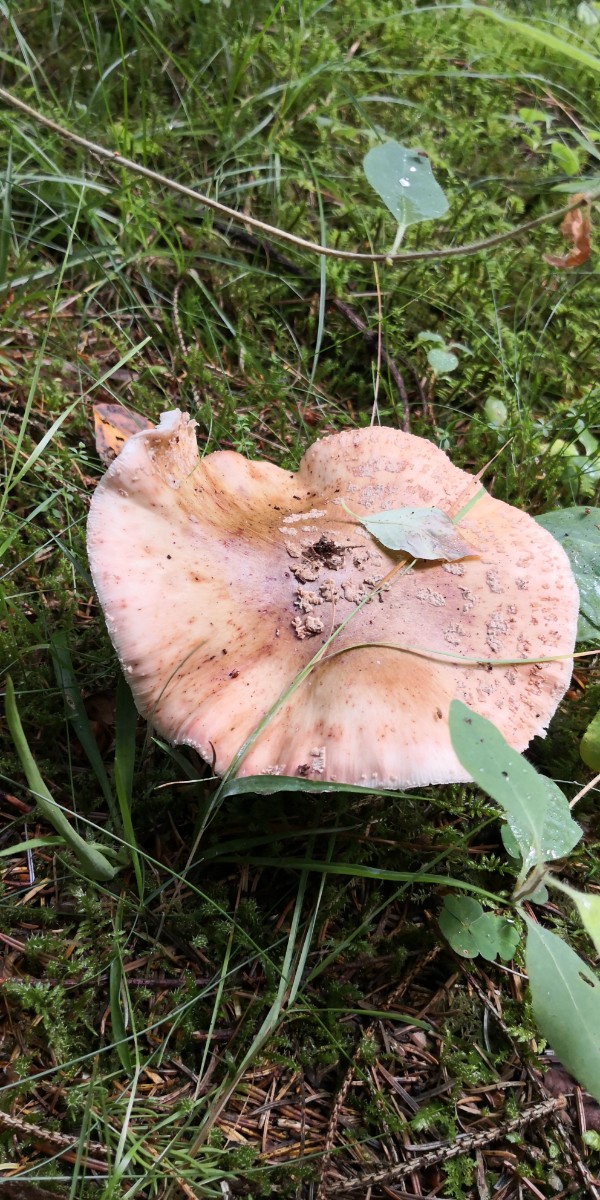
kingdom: Fungi
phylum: Basidiomycota
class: Agaricomycetes
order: Agaricales
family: Amanitaceae
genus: Amanita
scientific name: Amanita rubescens
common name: rødmende fluesvamp
